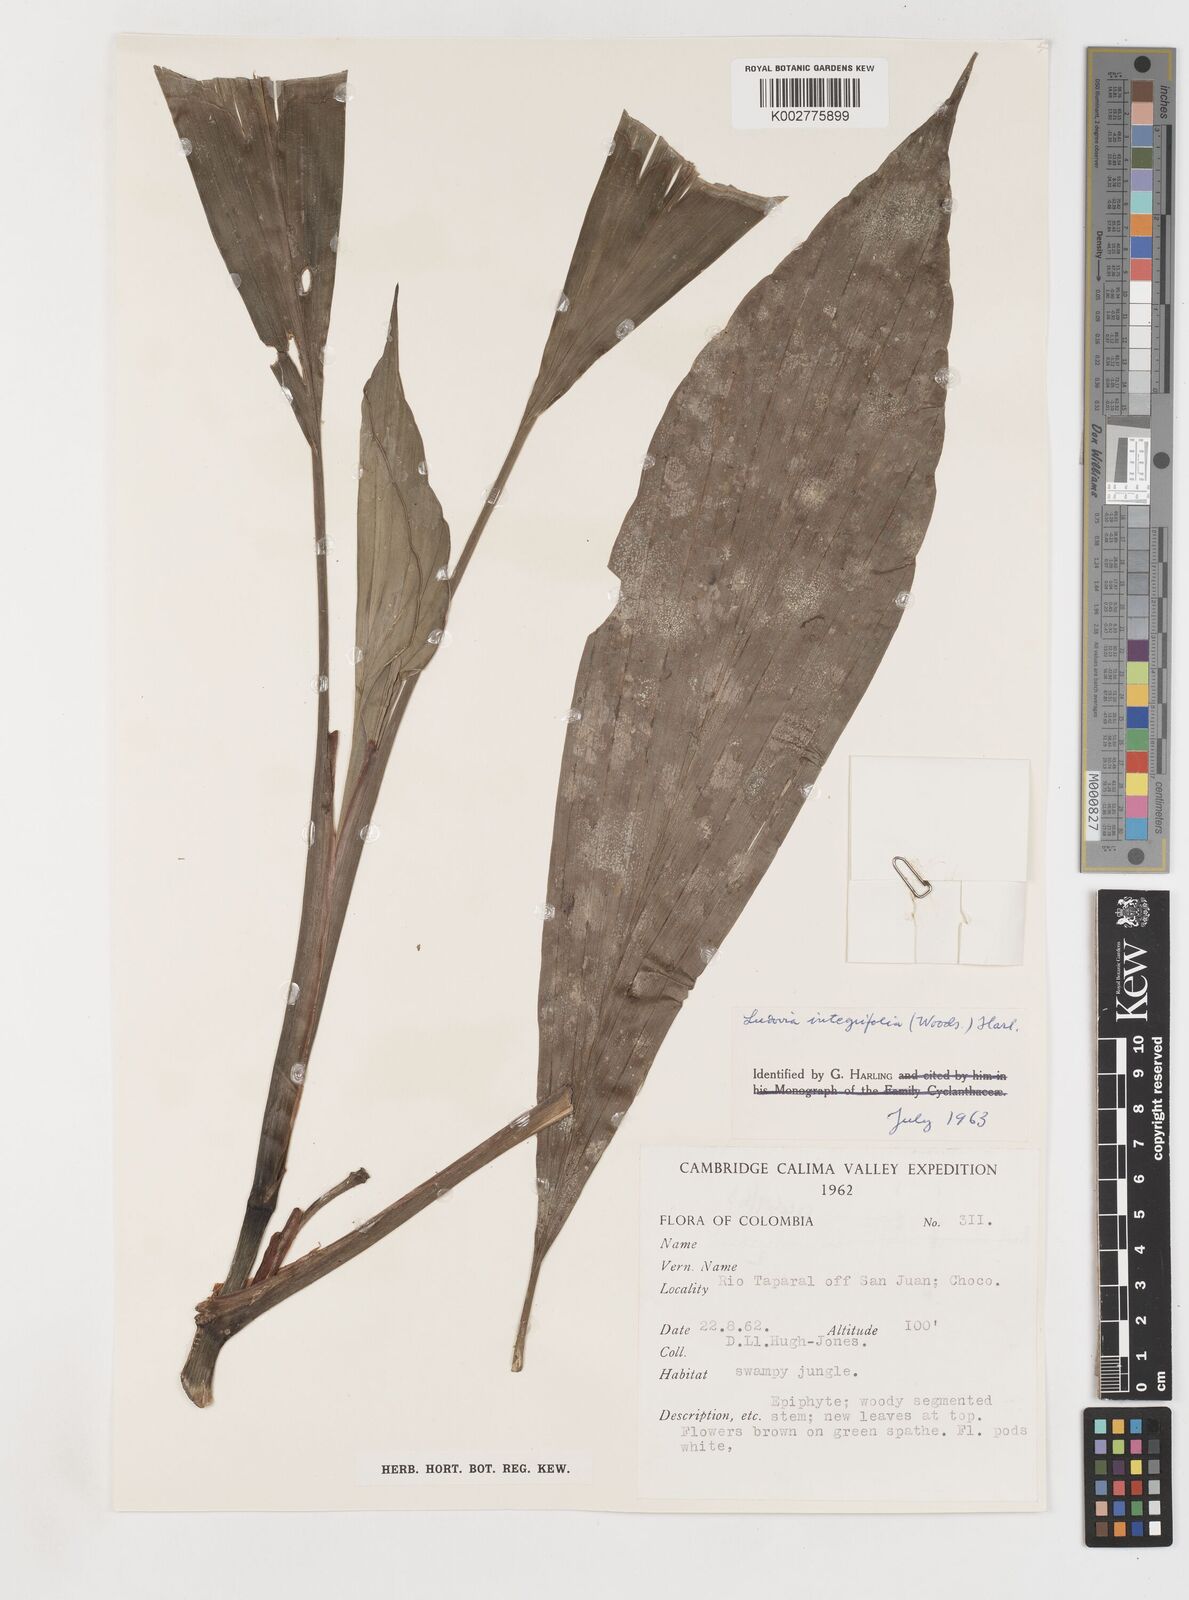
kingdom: Plantae
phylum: Tracheophyta
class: Liliopsida
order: Pandanales
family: Cyclanthaceae
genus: Ludovia
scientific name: Ludovia integrifolia
